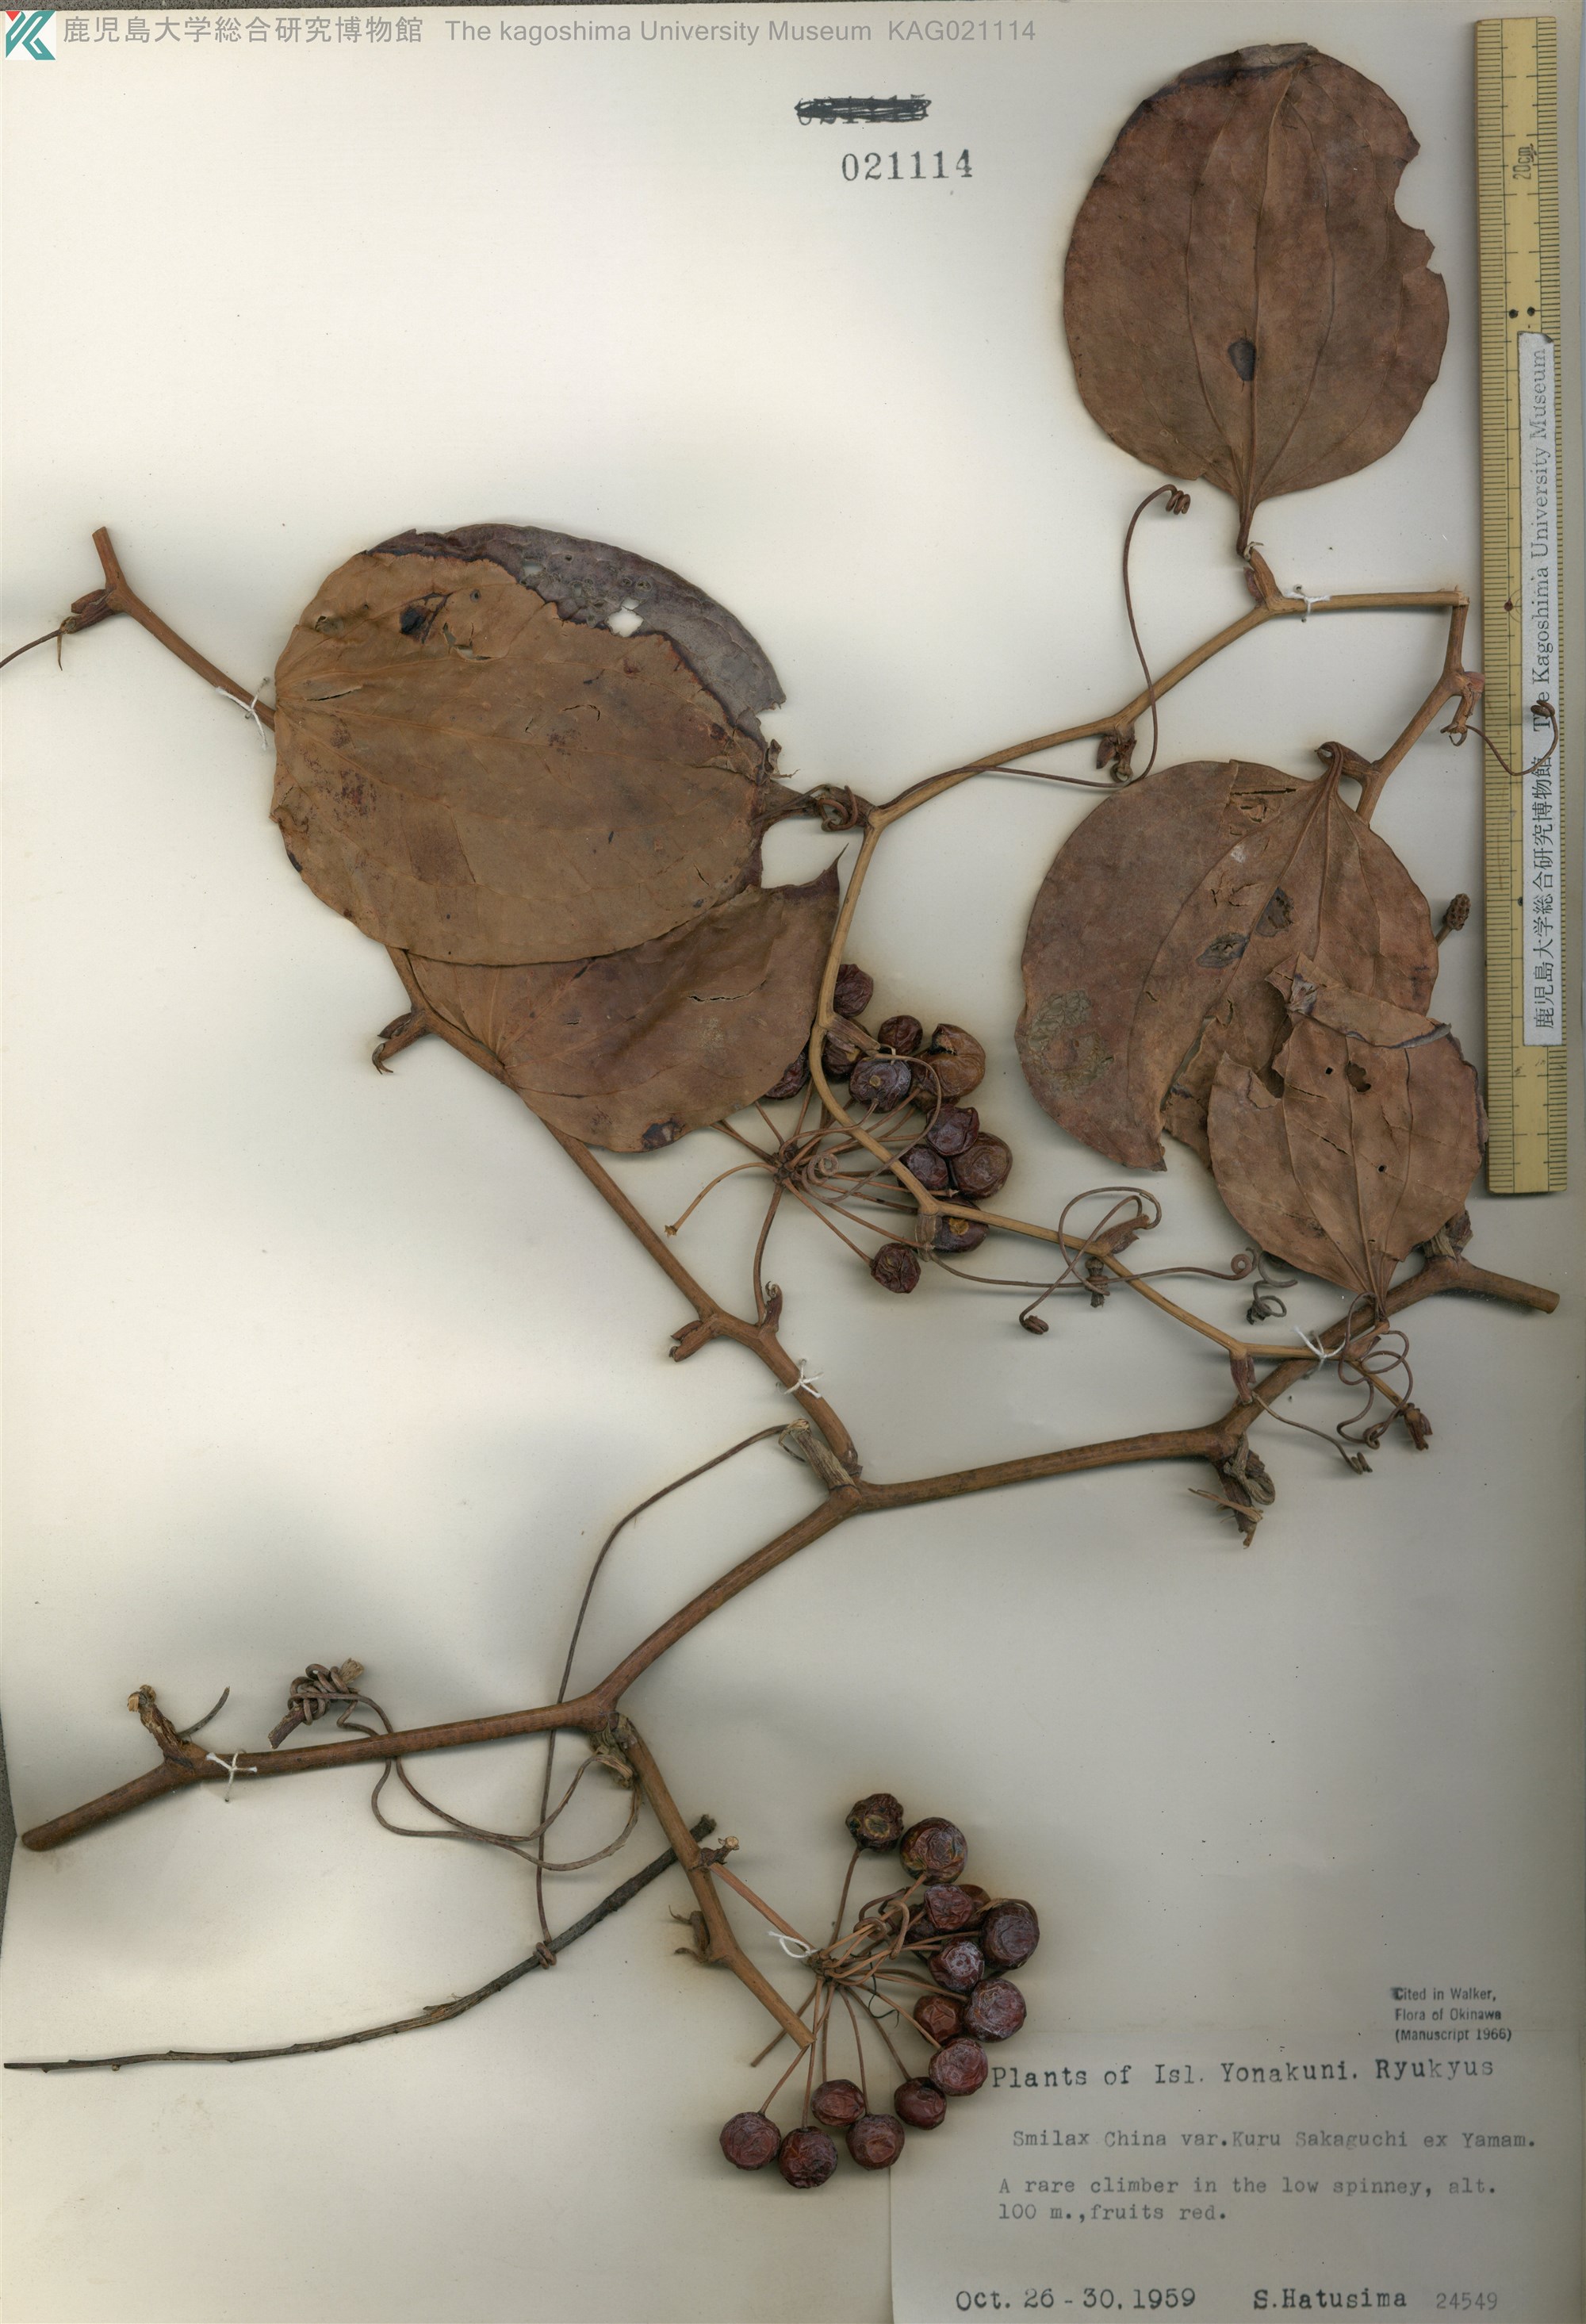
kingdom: Plantae
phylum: Tracheophyta
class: Liliopsida
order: Liliales
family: Smilacaceae
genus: Smilax
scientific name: Smilax china
